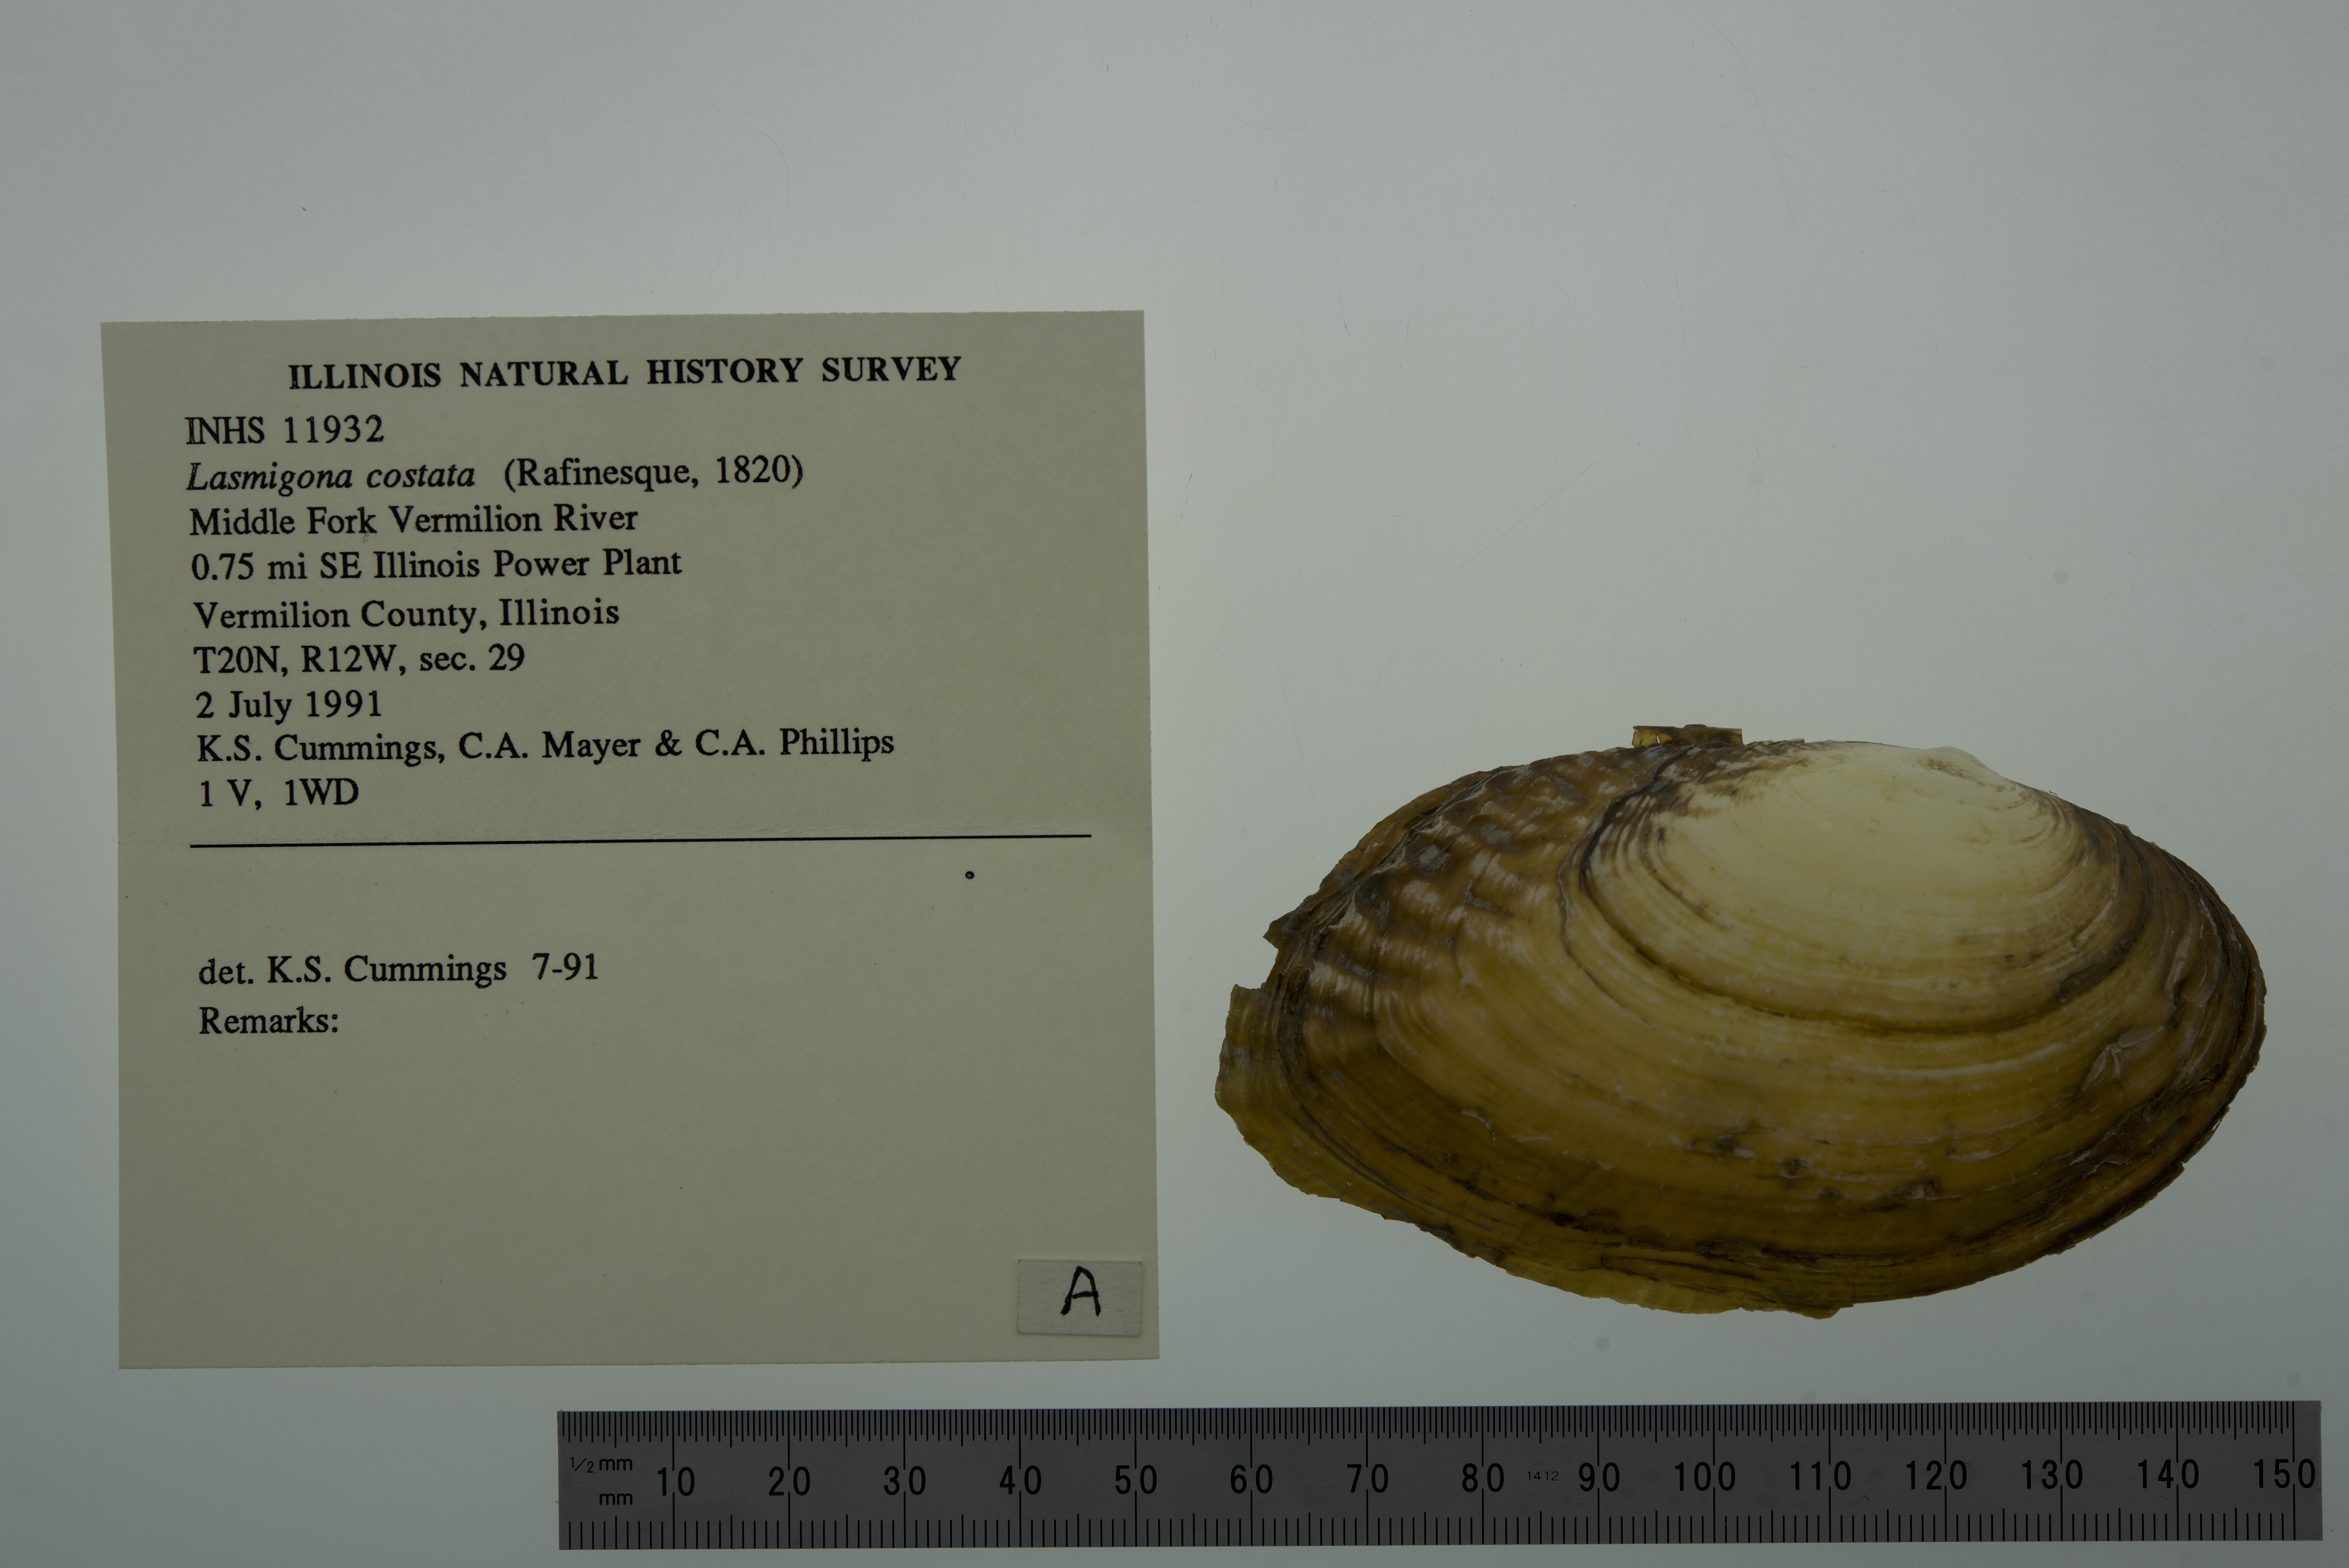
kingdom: Animalia
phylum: Mollusca
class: Bivalvia
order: Unionida
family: Unionidae
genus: Lasmigona
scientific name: Lasmigona costata
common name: Flutedshell
